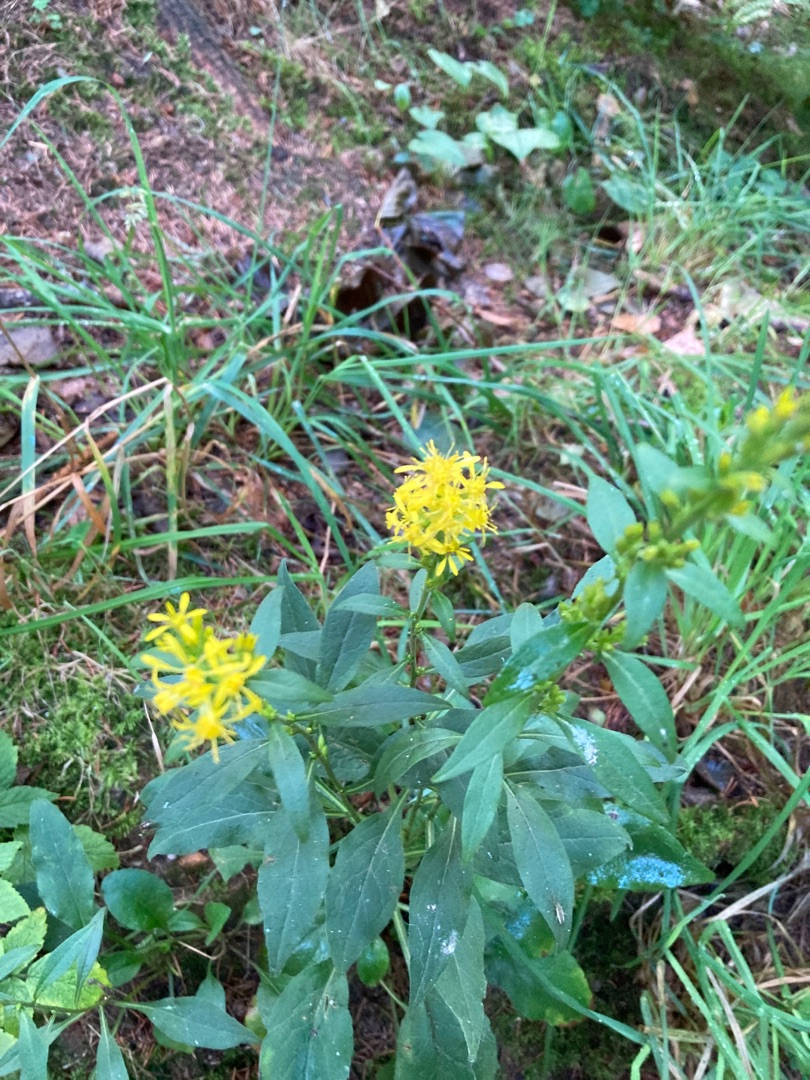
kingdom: Plantae
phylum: Tracheophyta
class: Magnoliopsida
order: Asterales
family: Asteraceae
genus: Solidago
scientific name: Solidago virgaurea
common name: Almindelig gyldenris
